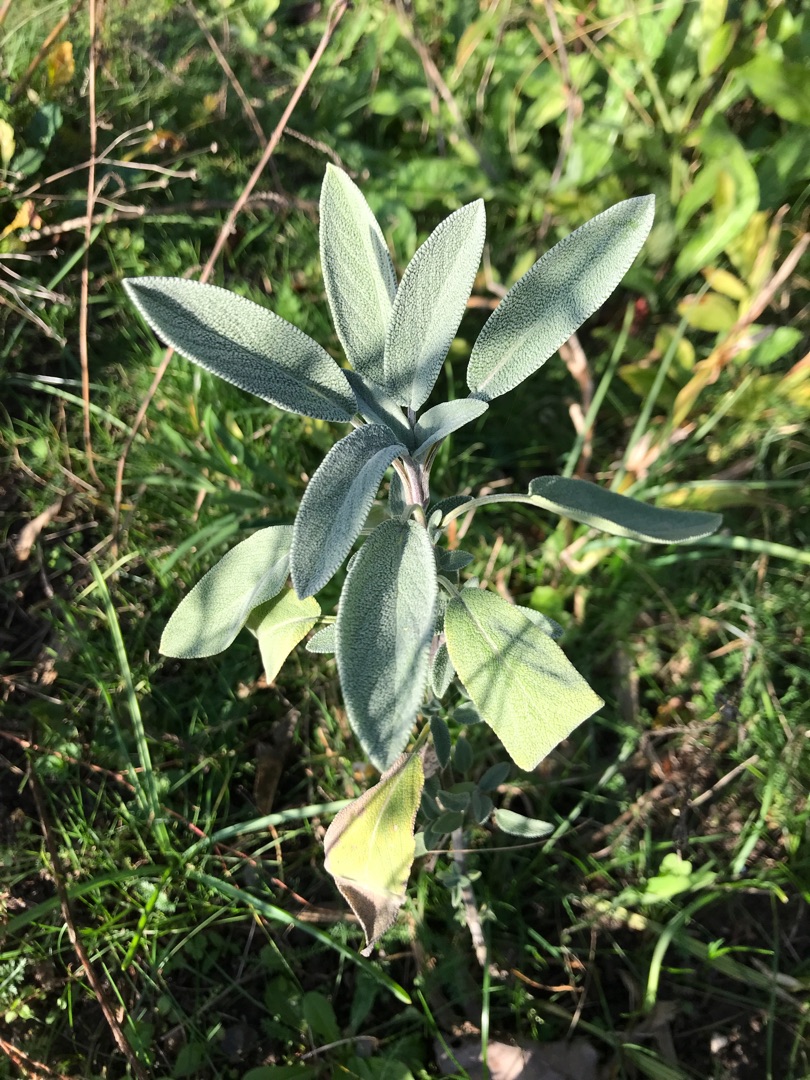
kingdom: Plantae
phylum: Tracheophyta
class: Magnoliopsida
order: Lamiales
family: Lamiaceae
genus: Salvia
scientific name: Salvia officinalis
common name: Læge-salvie
